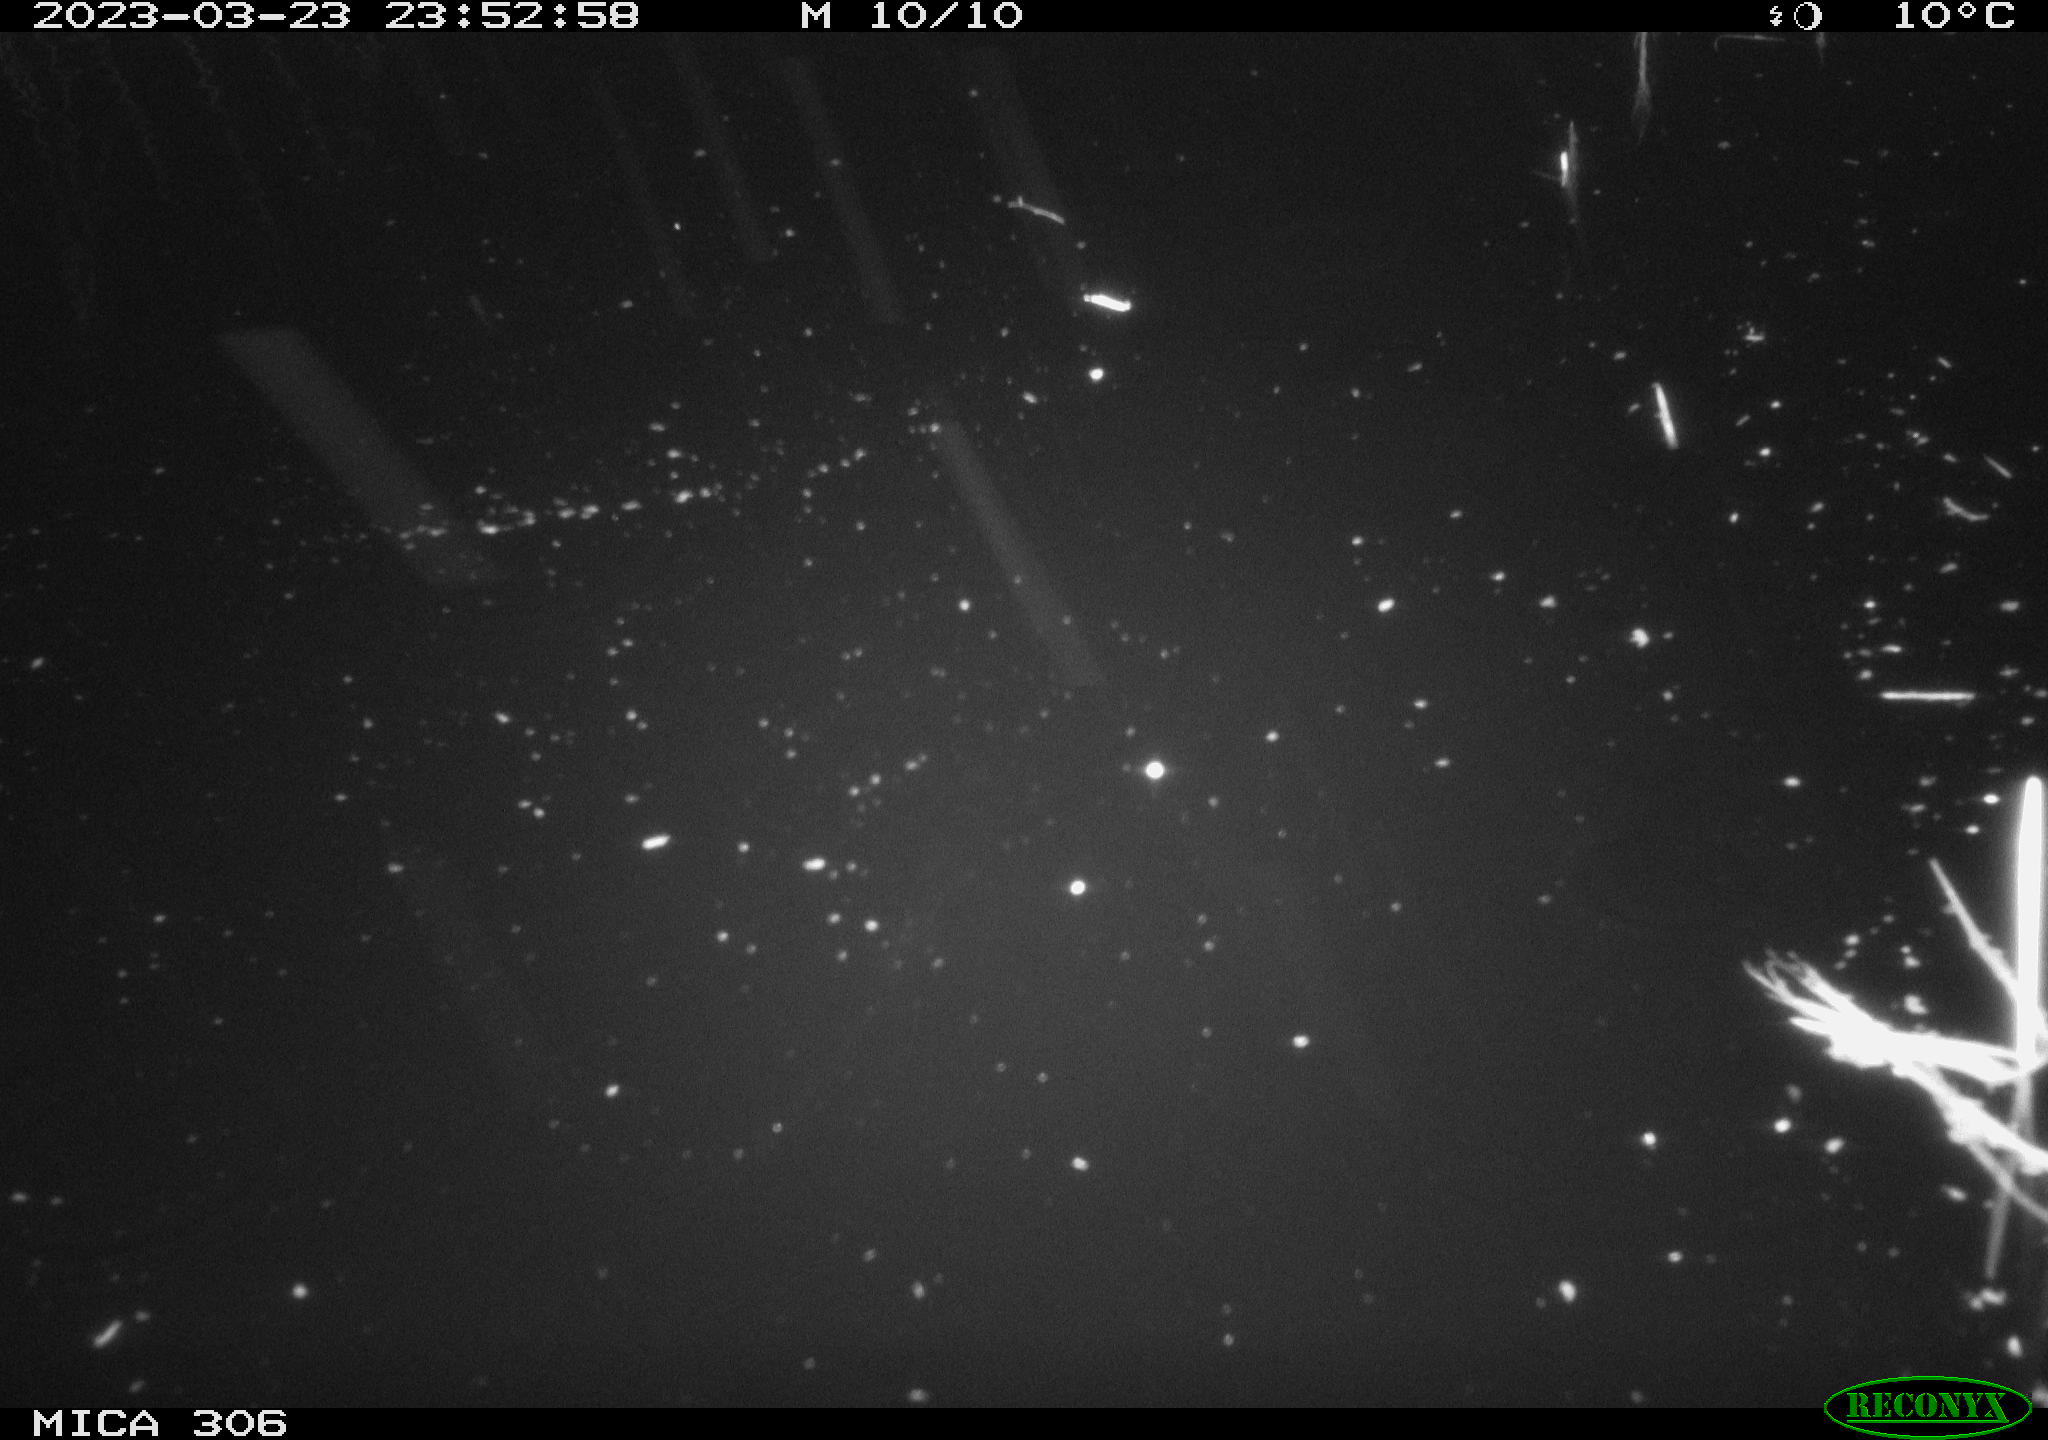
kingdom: Animalia
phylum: Chordata
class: Aves
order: Anseriformes
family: Anatidae
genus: Anas
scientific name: Anas
